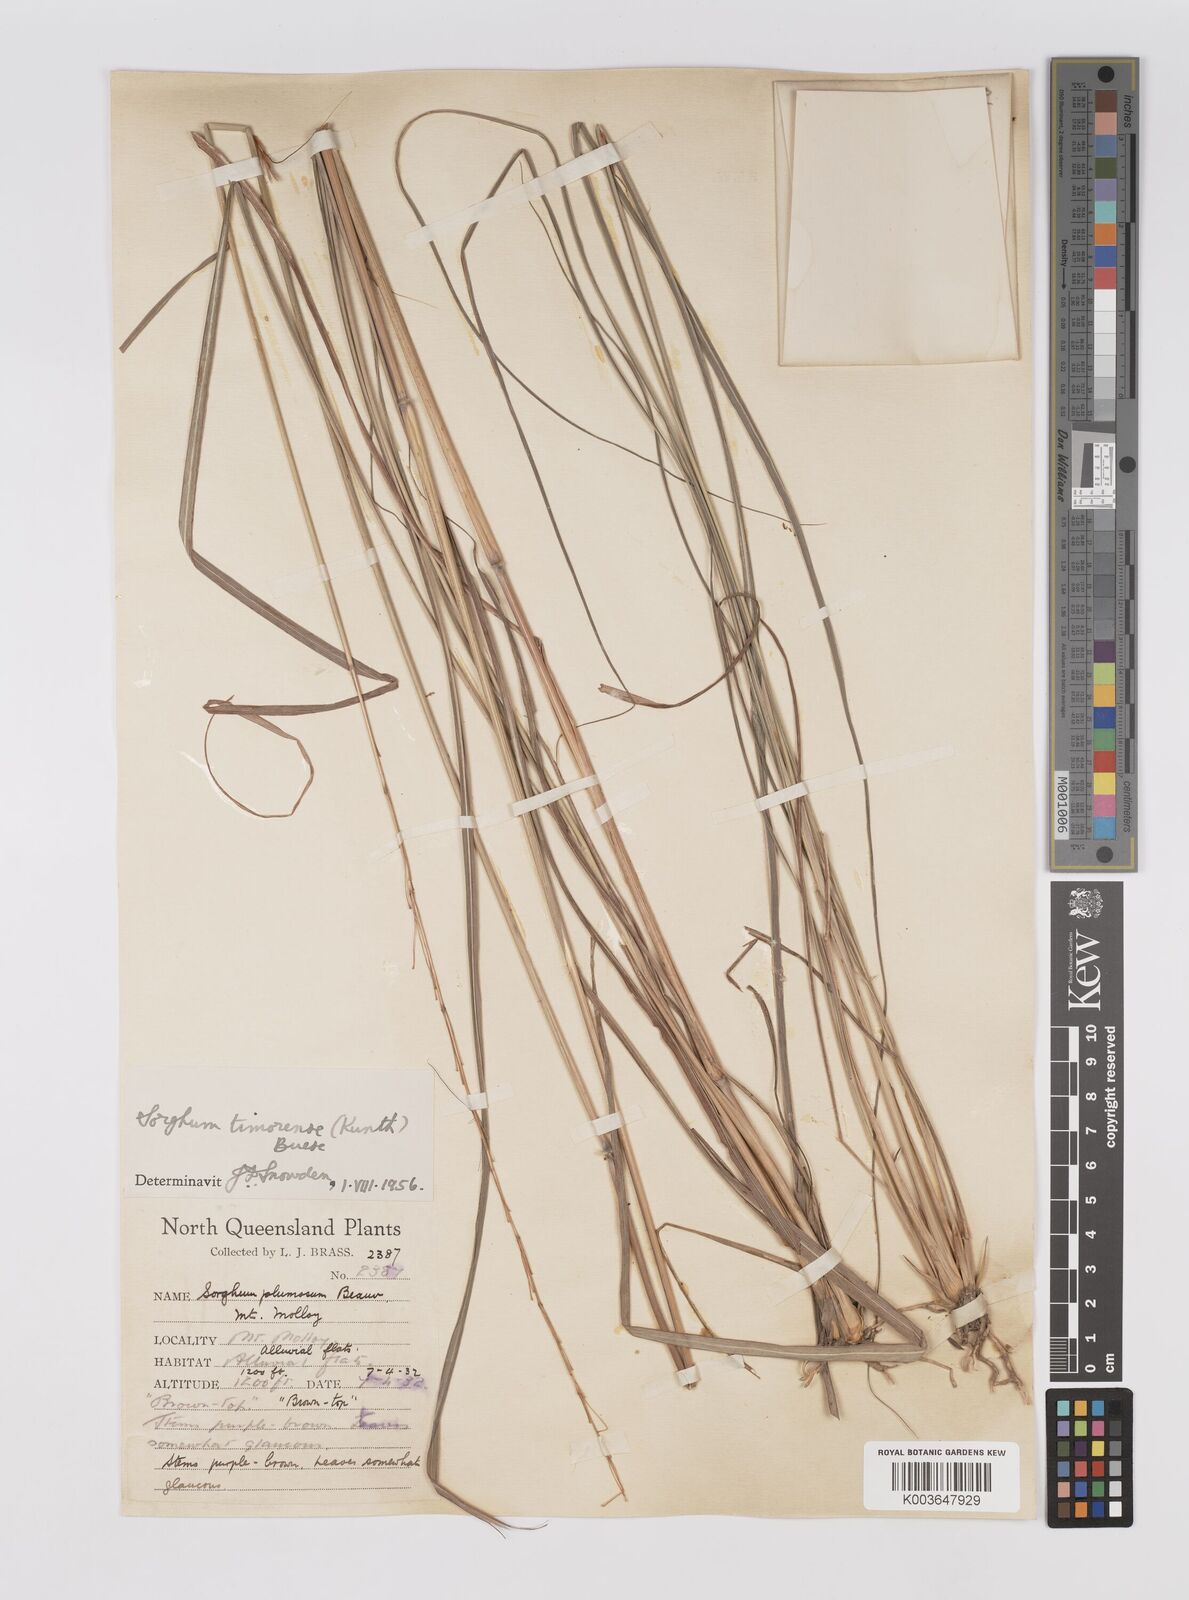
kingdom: Plantae
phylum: Tracheophyta
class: Liliopsida
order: Poales
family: Poaceae
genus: Sarga
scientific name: Sarga timorensis
